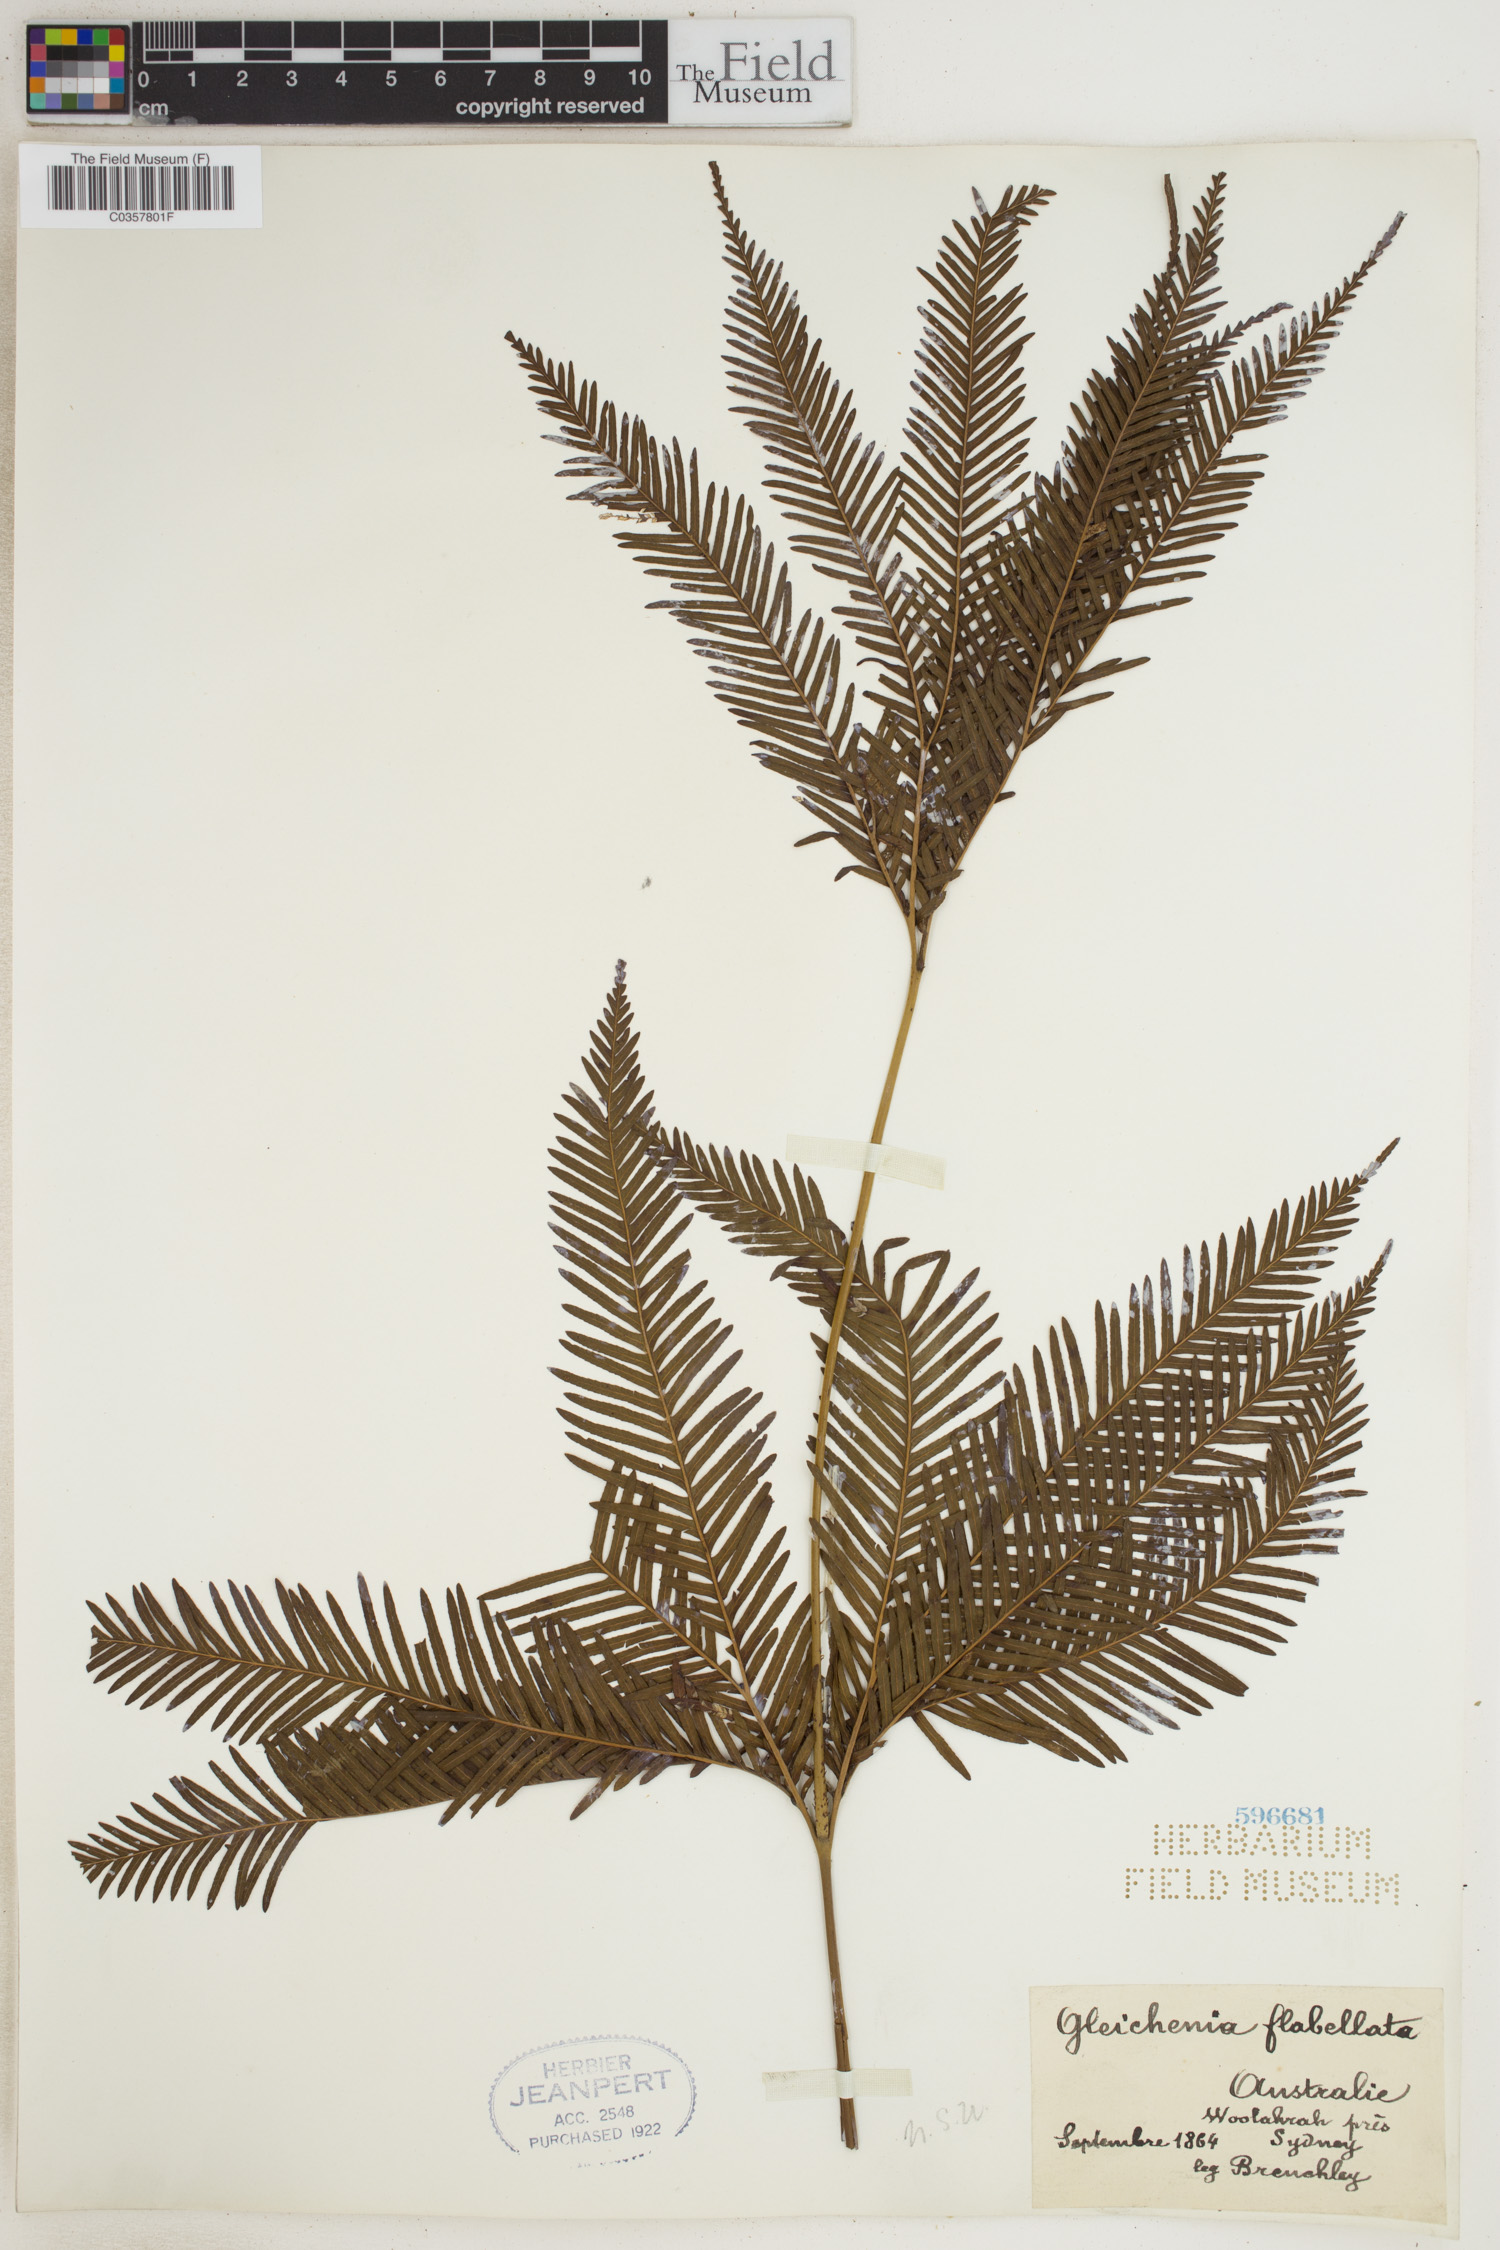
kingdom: Plantae
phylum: Tracheophyta
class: Polypodiopsida
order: Gleicheniales
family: Gleicheniaceae
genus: Sticherus
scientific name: Sticherus flabellatus
